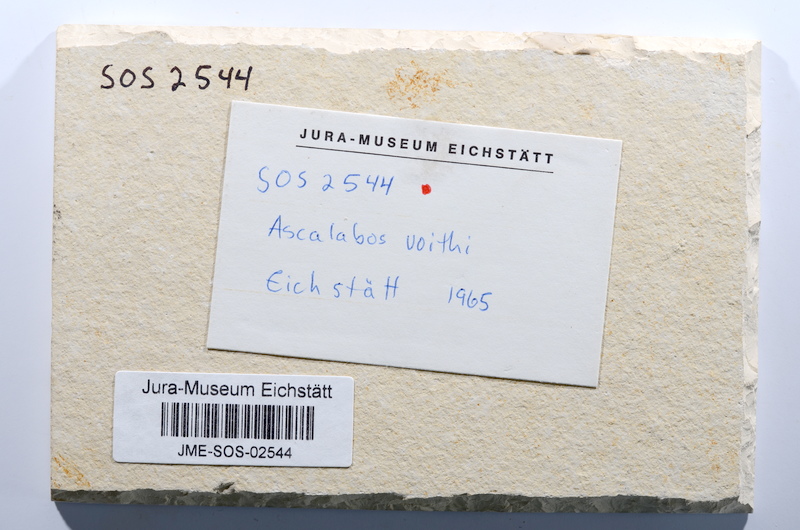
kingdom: Animalia
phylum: Chordata
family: Ascalaboidae
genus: Ascalabos
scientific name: Ascalabos voithii
